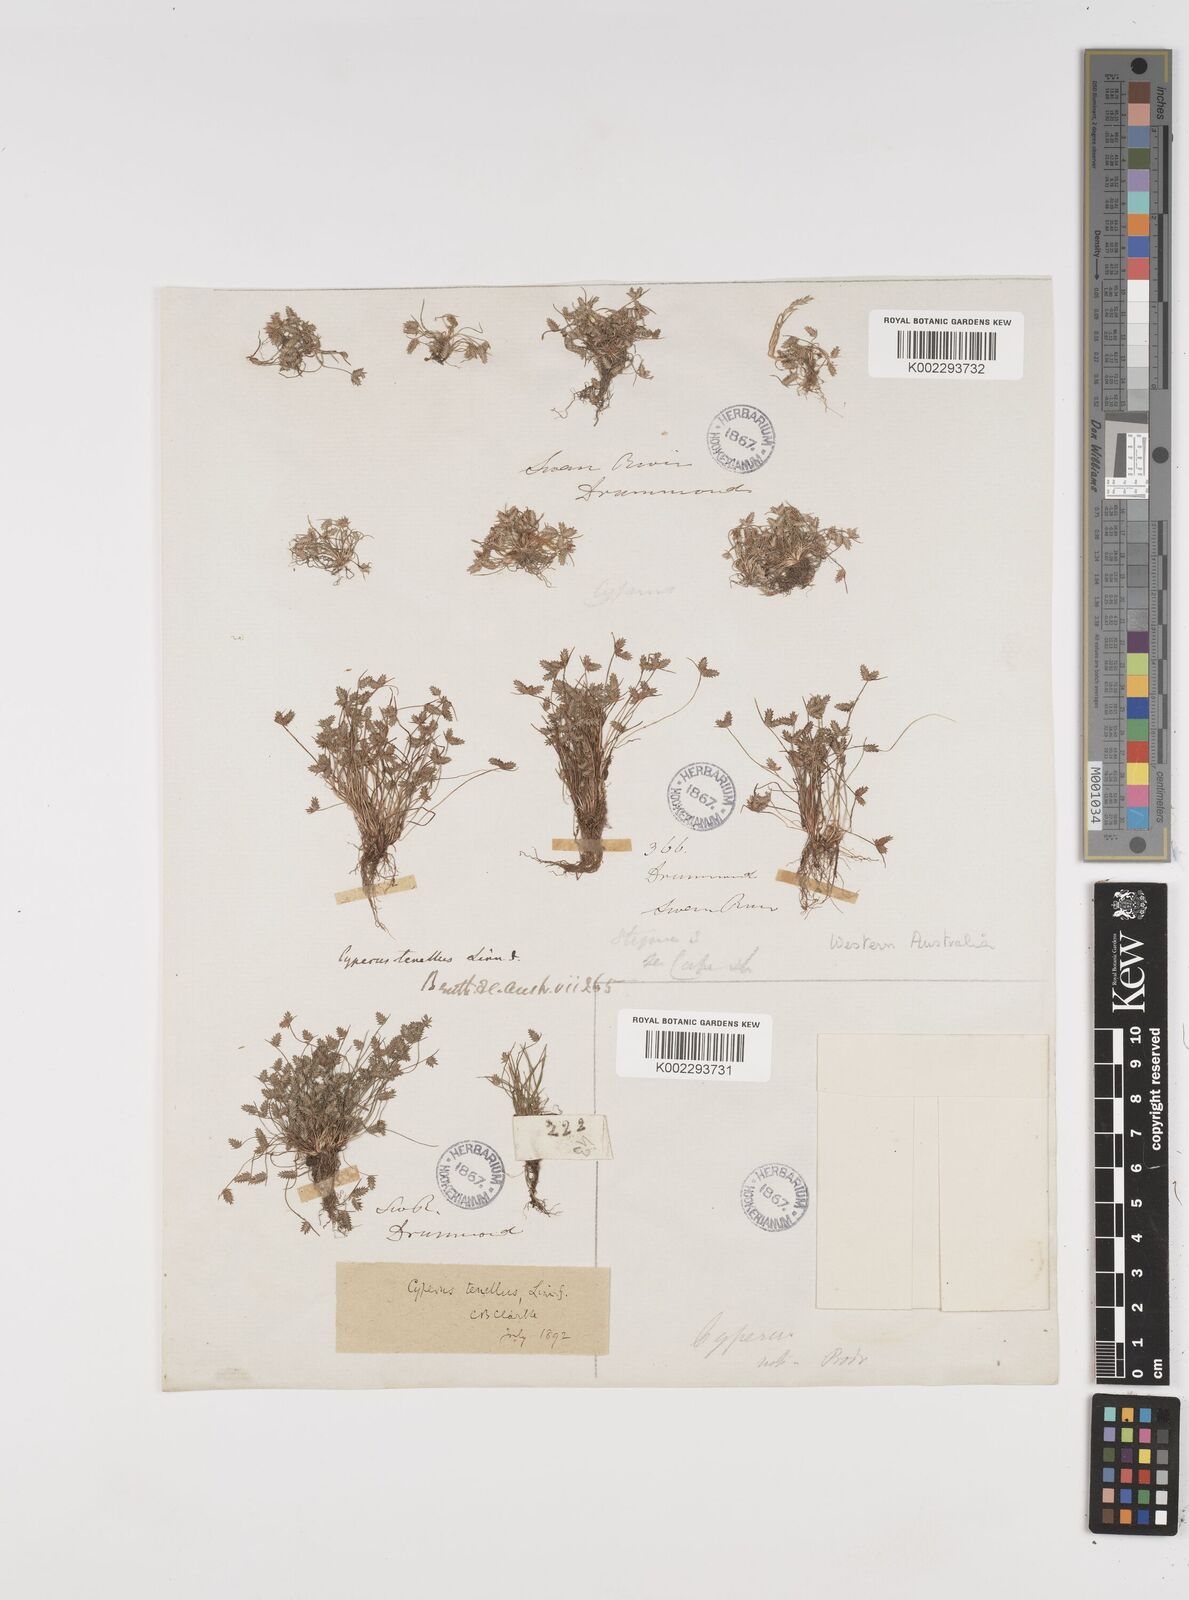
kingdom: Plantae
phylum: Tracheophyta
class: Liliopsida
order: Poales
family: Cyperaceae
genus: Isolepis
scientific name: Isolepis levynsiana
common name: Sedge
